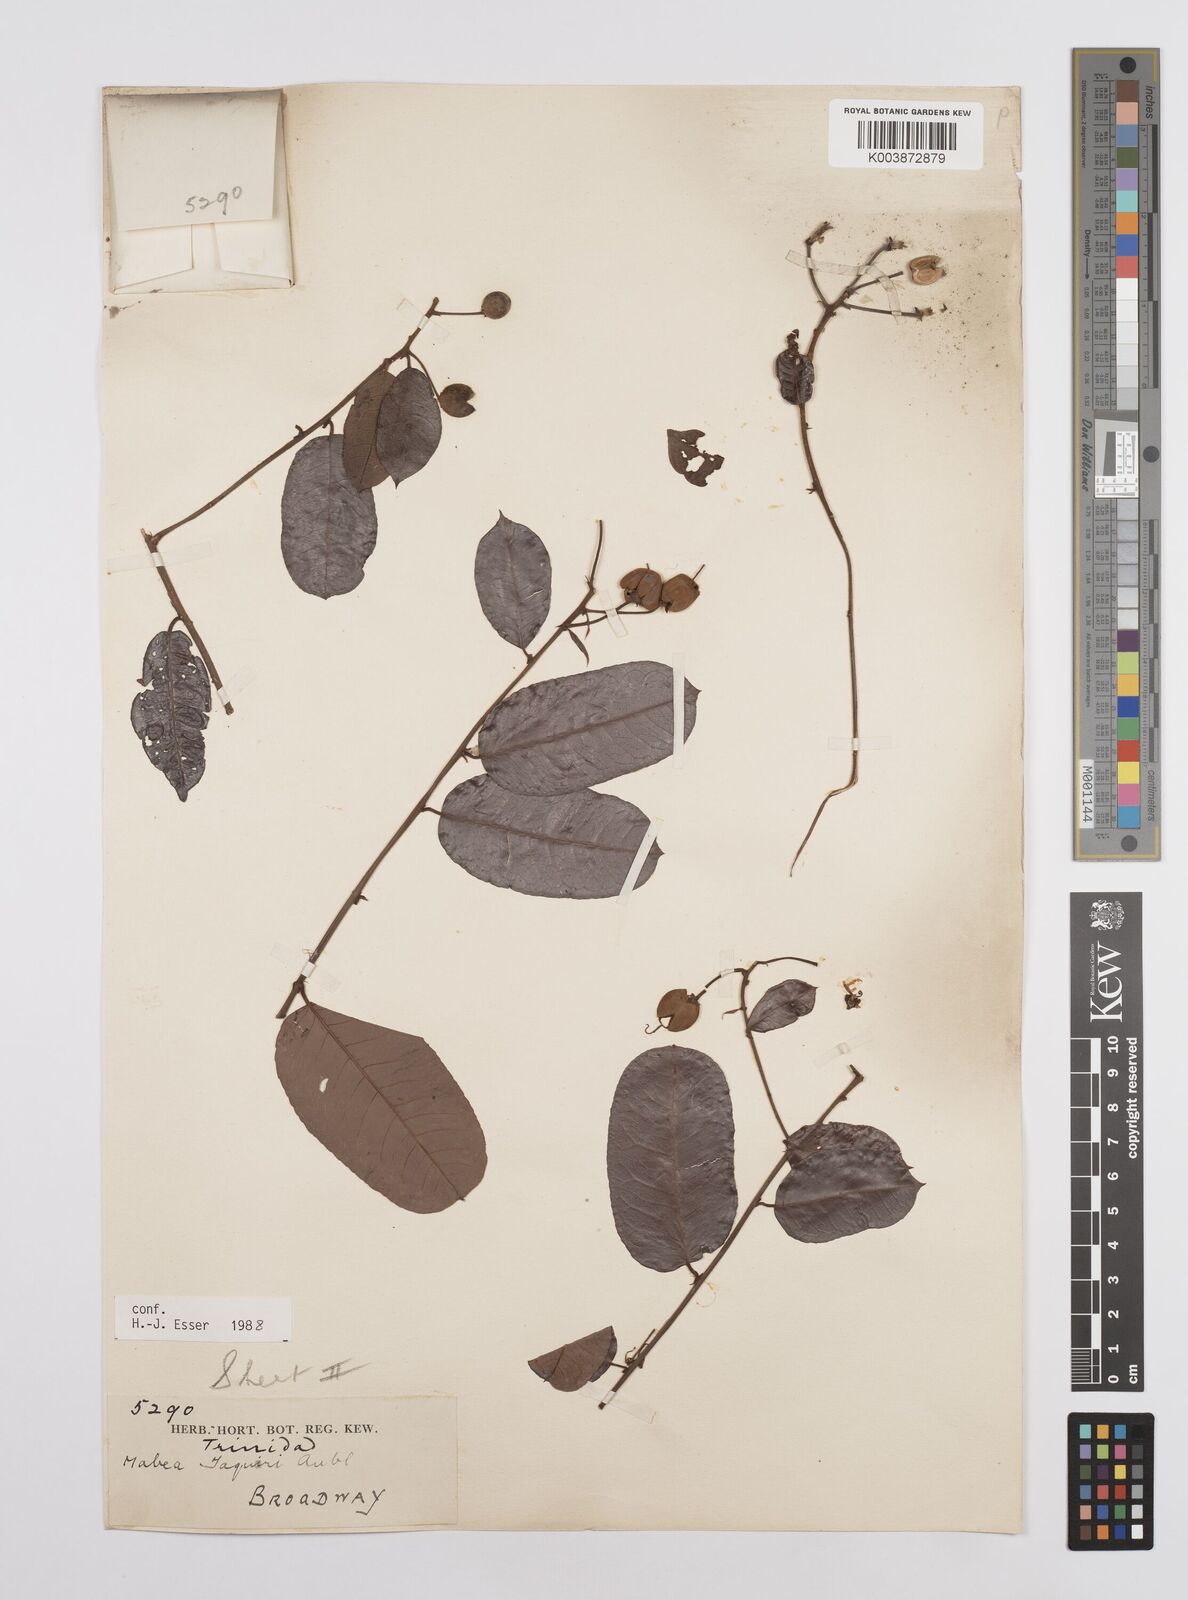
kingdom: Plantae
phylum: Tracheophyta
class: Magnoliopsida
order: Malpighiales
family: Euphorbiaceae
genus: Mabea
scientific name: Mabea taquari
